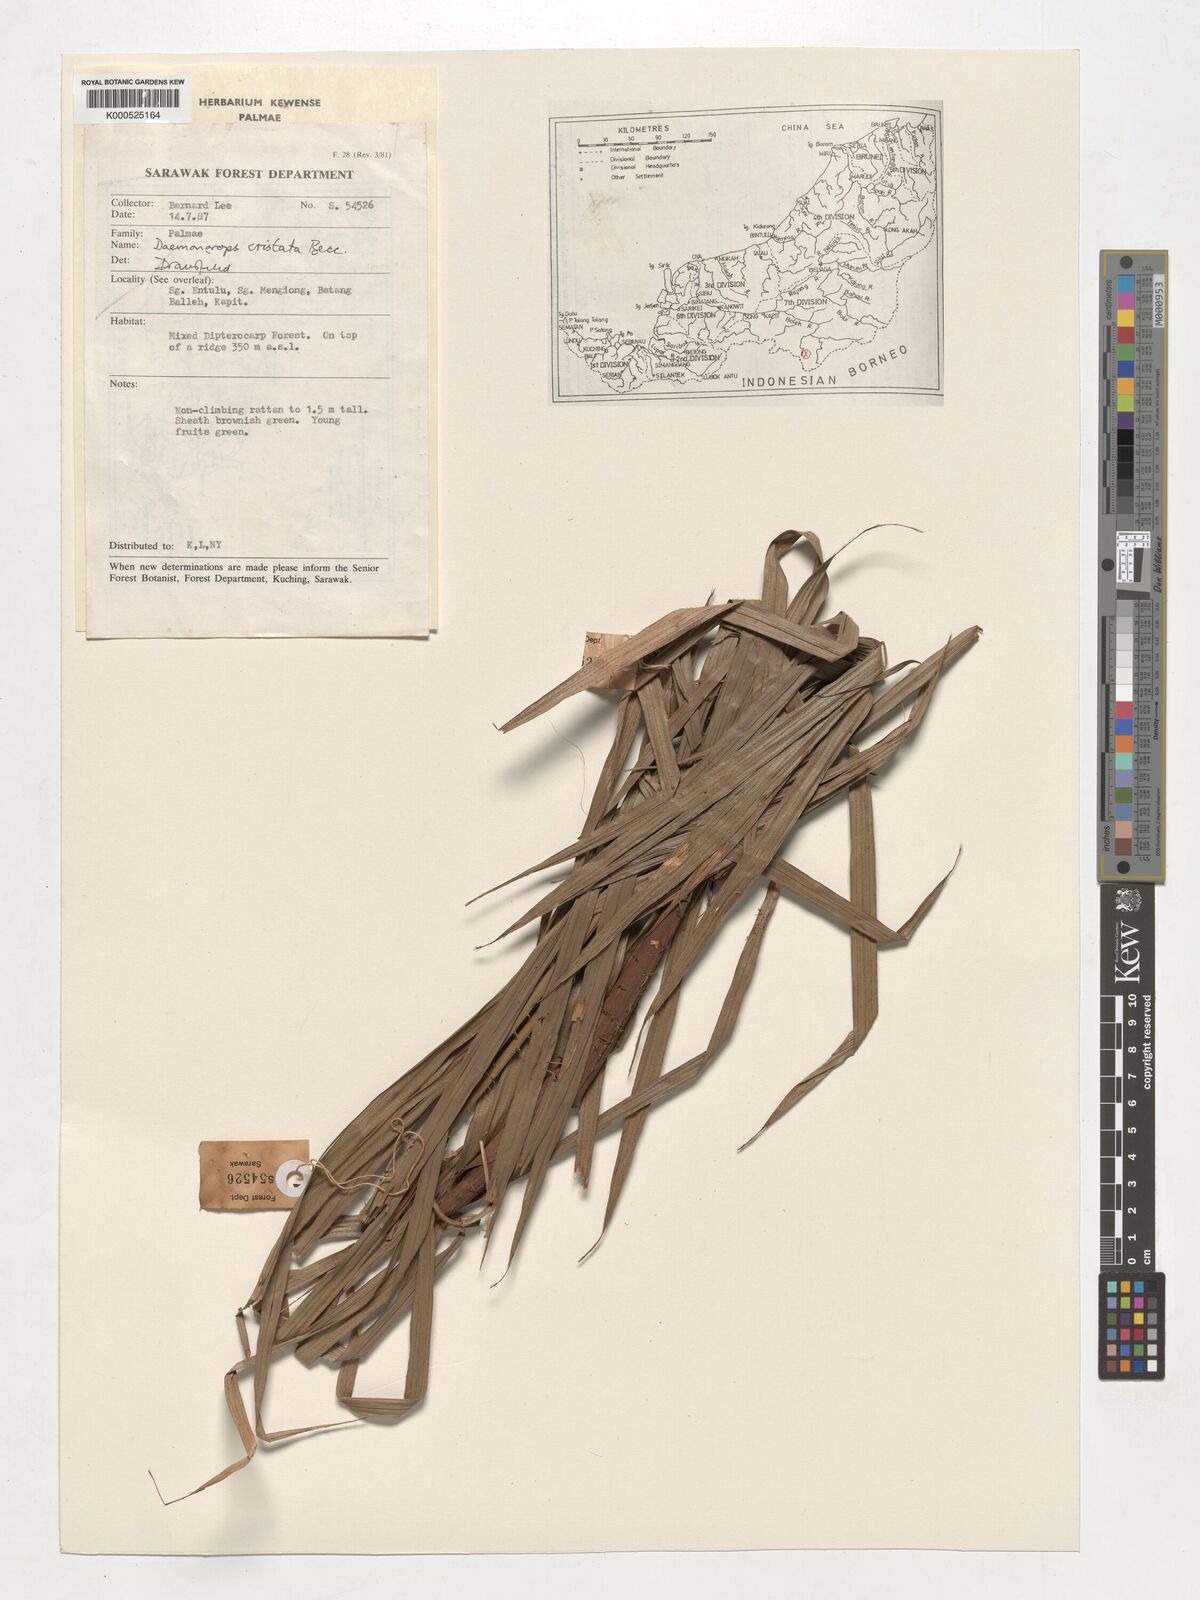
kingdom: Plantae
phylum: Tracheophyta
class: Liliopsida
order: Arecales
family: Arecaceae
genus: Calamus
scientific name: Calamus cristatus
